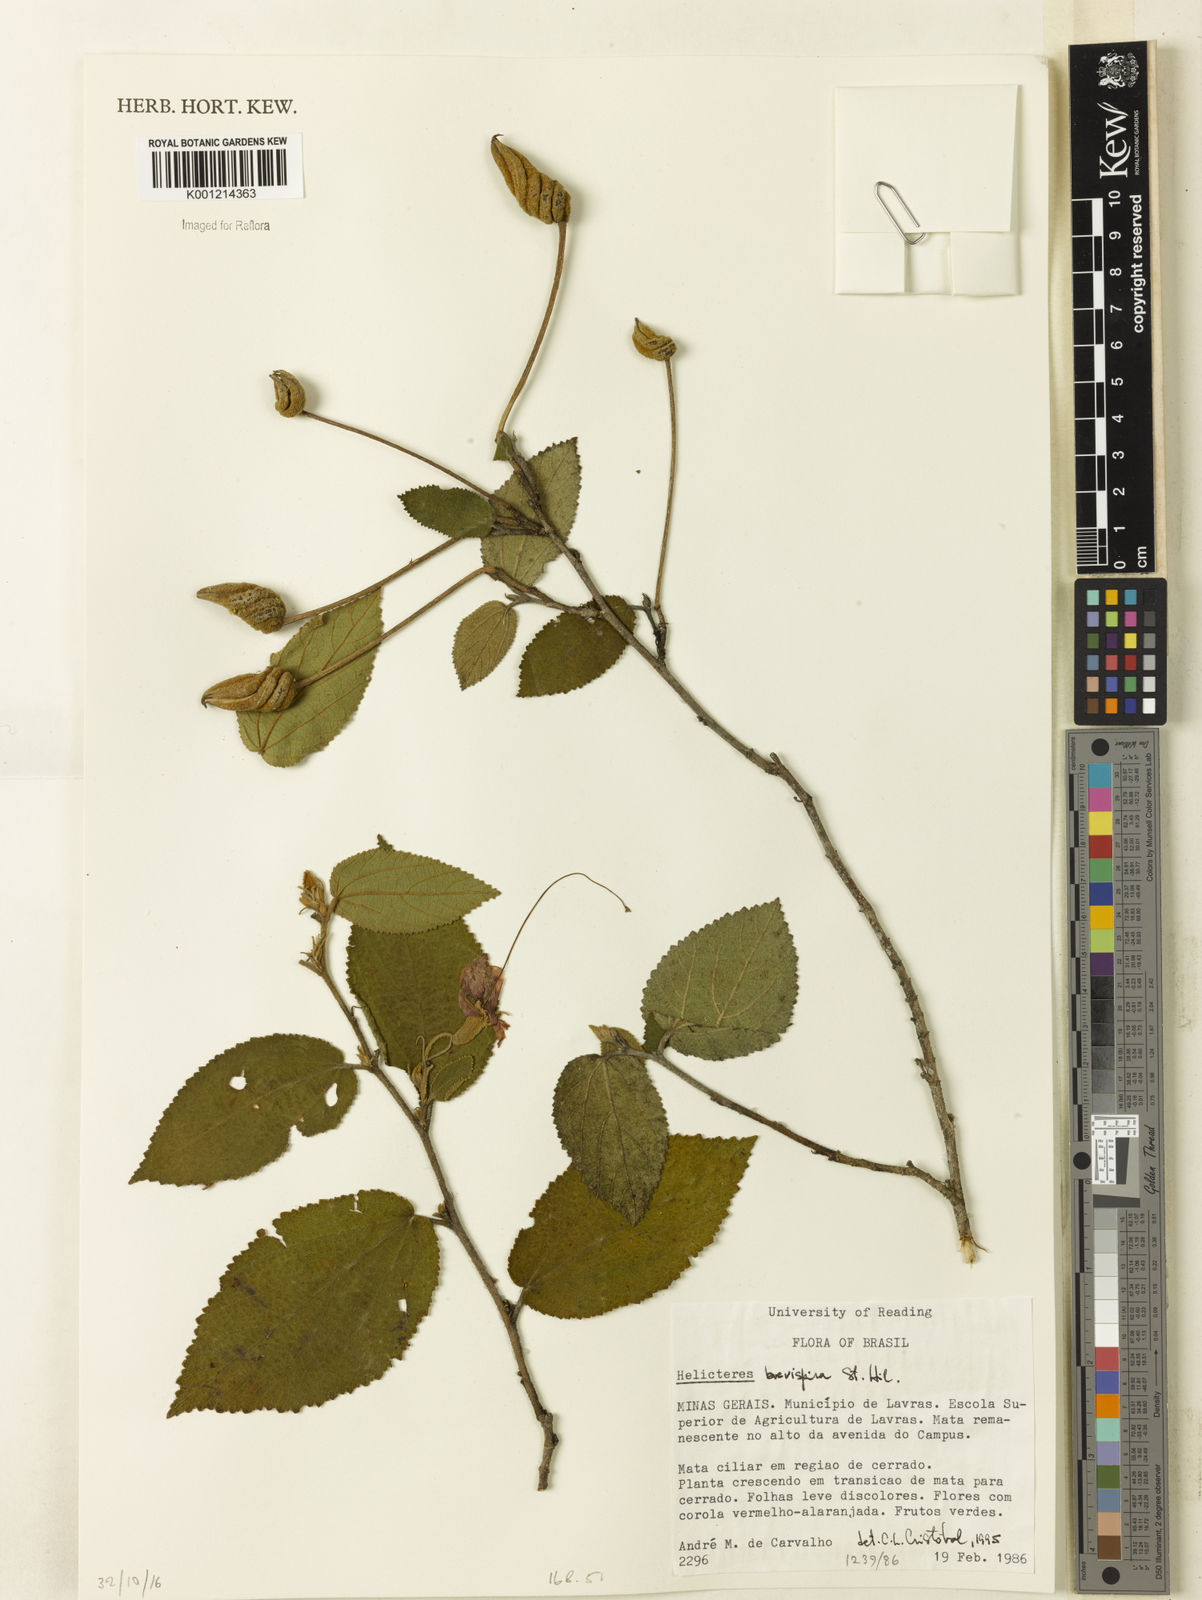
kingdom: Plantae
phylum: Tracheophyta
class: Magnoliopsida
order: Malvales
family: Malvaceae
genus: Helicteres
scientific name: Helicteres
